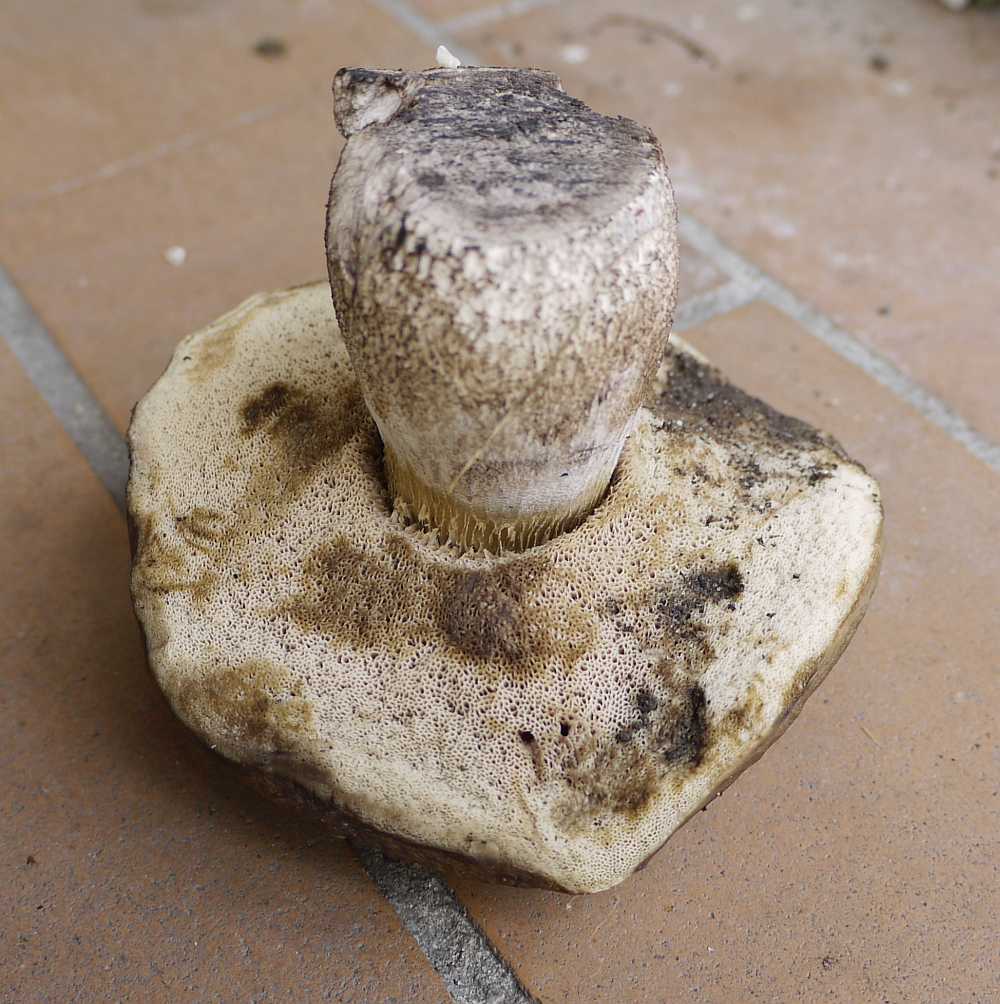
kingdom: Fungi
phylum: Basidiomycota
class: Agaricomycetes
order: Boletales
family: Boletaceae
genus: Leccinellum
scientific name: Leccinellum pseudoscabrum
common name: avnbøg-skælrørhat
